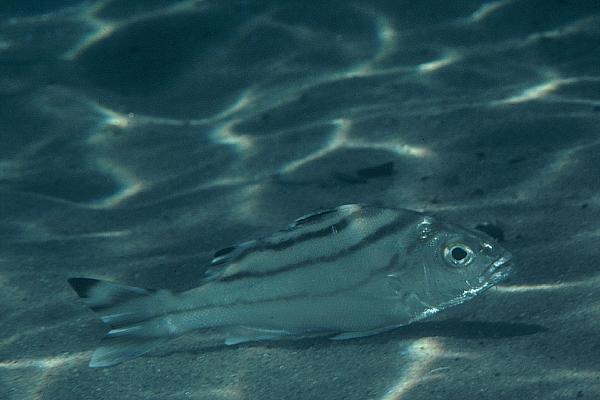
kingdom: Animalia
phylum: Chordata
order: Perciformes
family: Terapontidae
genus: Terapon
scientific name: Terapon jarbua
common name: Jarbua terapon
